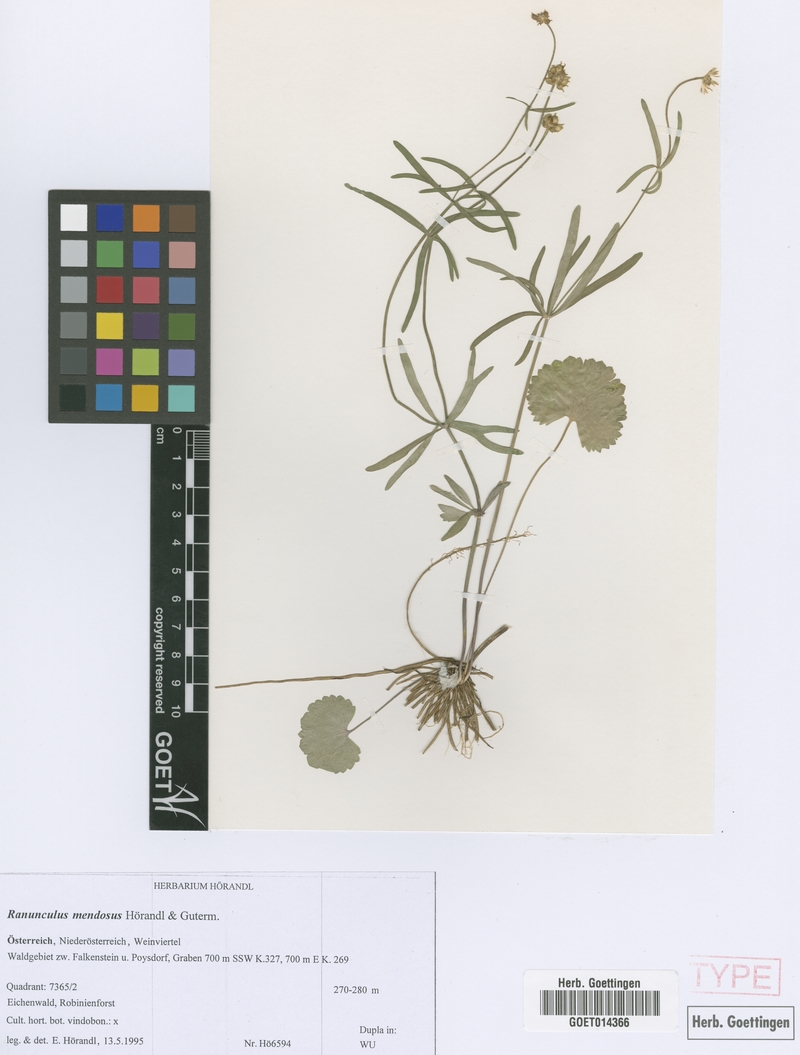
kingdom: Plantae
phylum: Tracheophyta
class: Magnoliopsida
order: Ranunculales
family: Ranunculaceae
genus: Ranunculus
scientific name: Ranunculus mendosus
